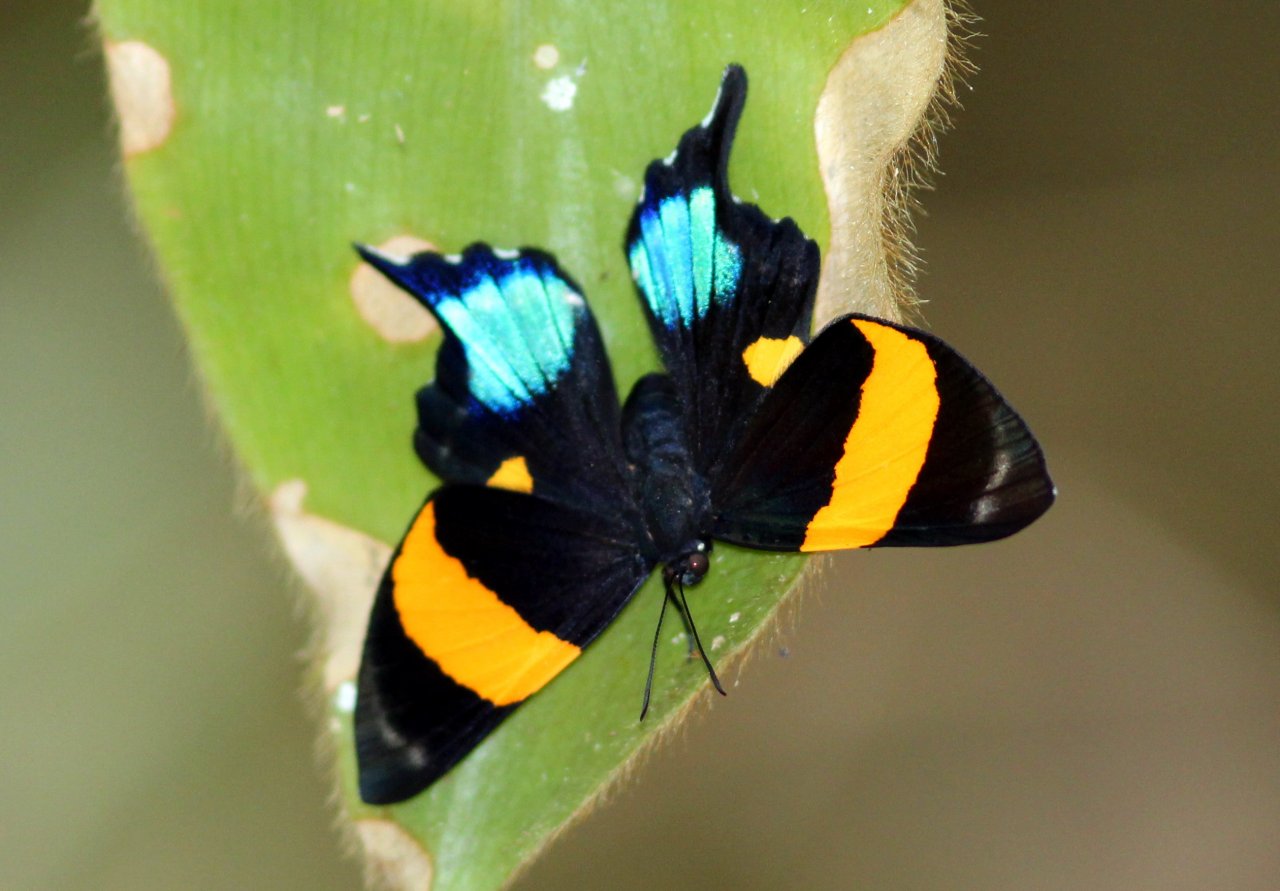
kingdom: Animalia
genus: Ancyluris
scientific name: Ancyluris inca
